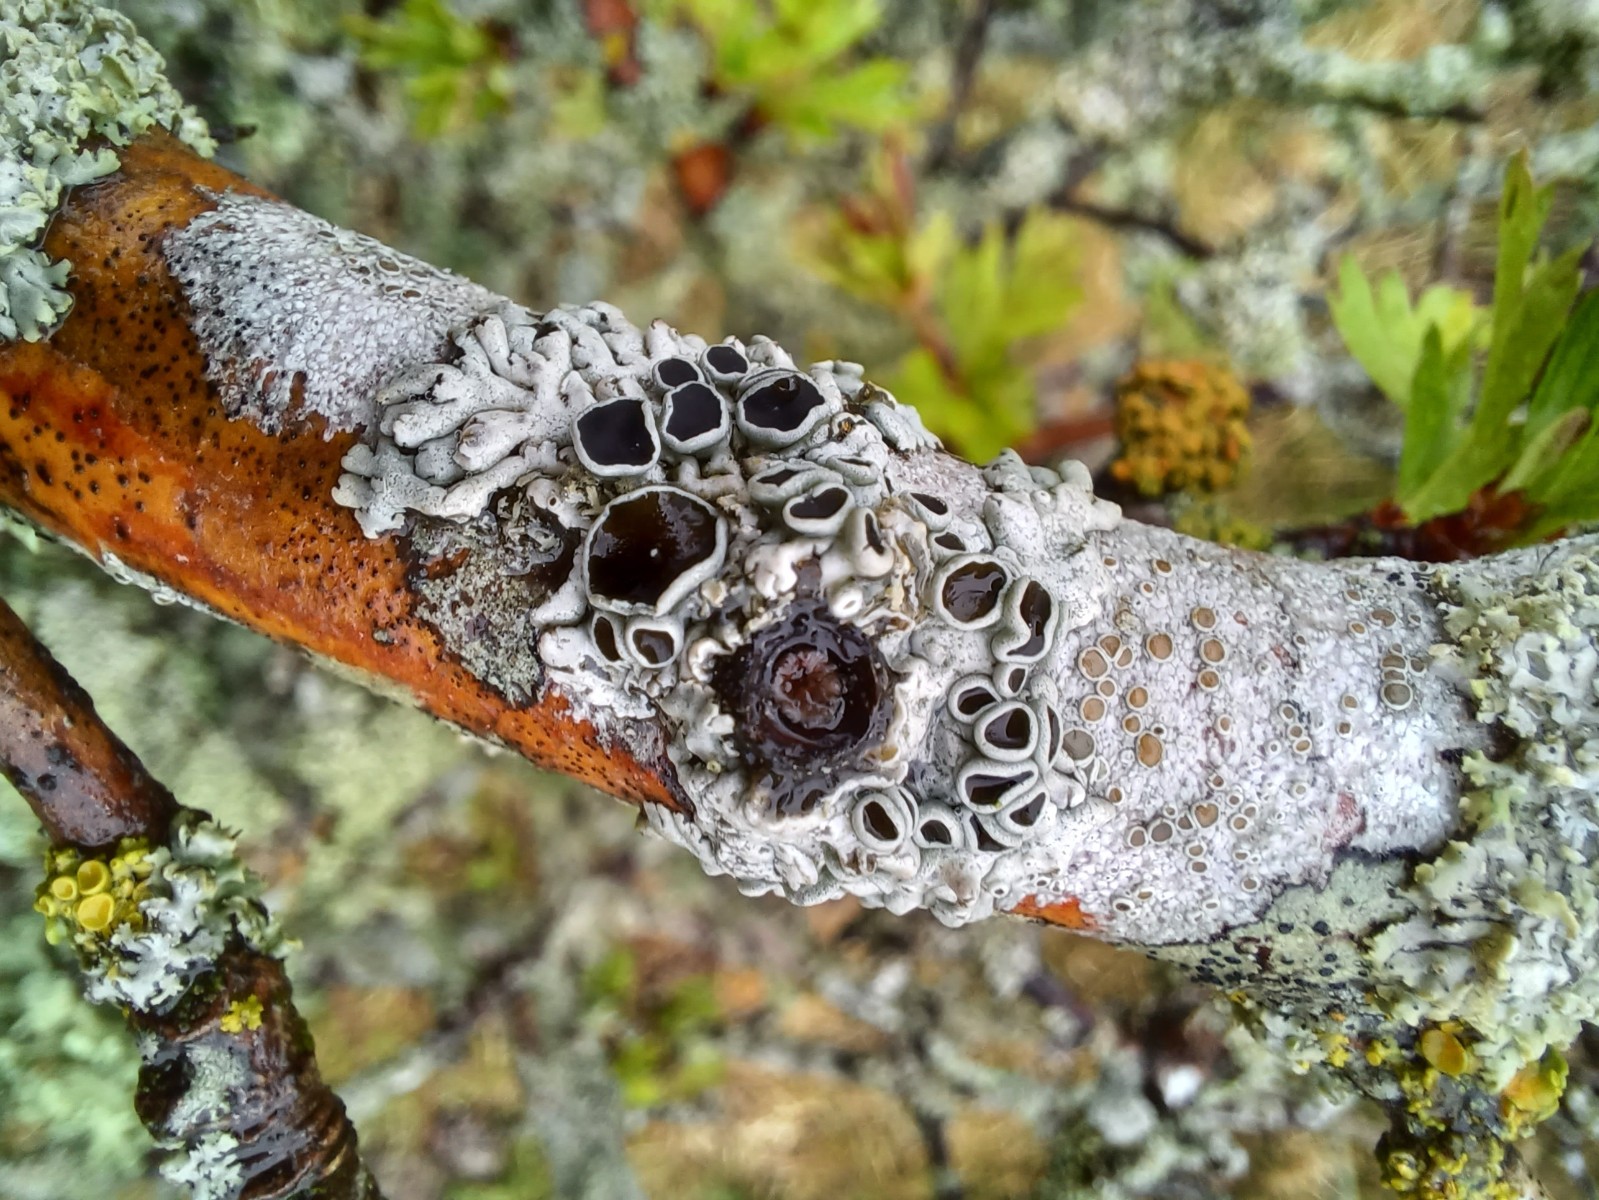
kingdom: Fungi
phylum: Ascomycota
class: Lecanoromycetes
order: Caliciales
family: Physciaceae
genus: Physcia
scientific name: Physcia aipolia
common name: hvidprikket rosetlav
